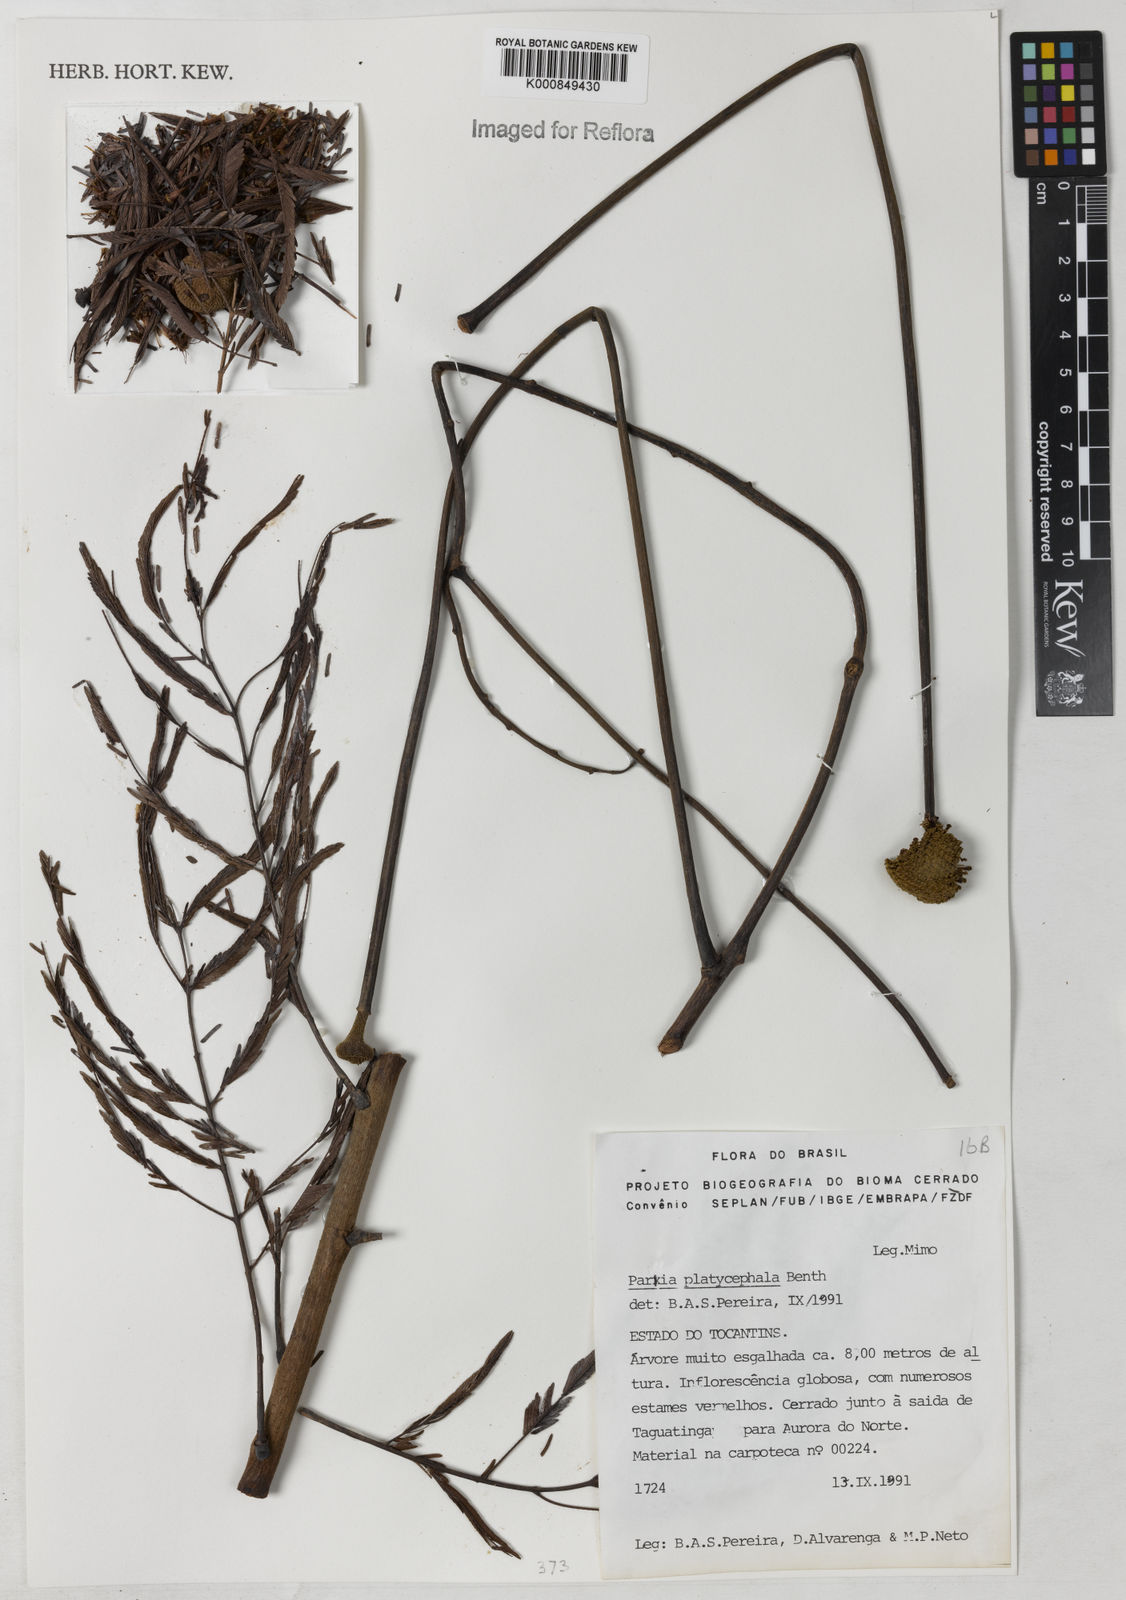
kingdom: Plantae
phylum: Tracheophyta
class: Magnoliopsida
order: Fabales
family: Fabaceae
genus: Parkia
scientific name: Parkia platycephala
